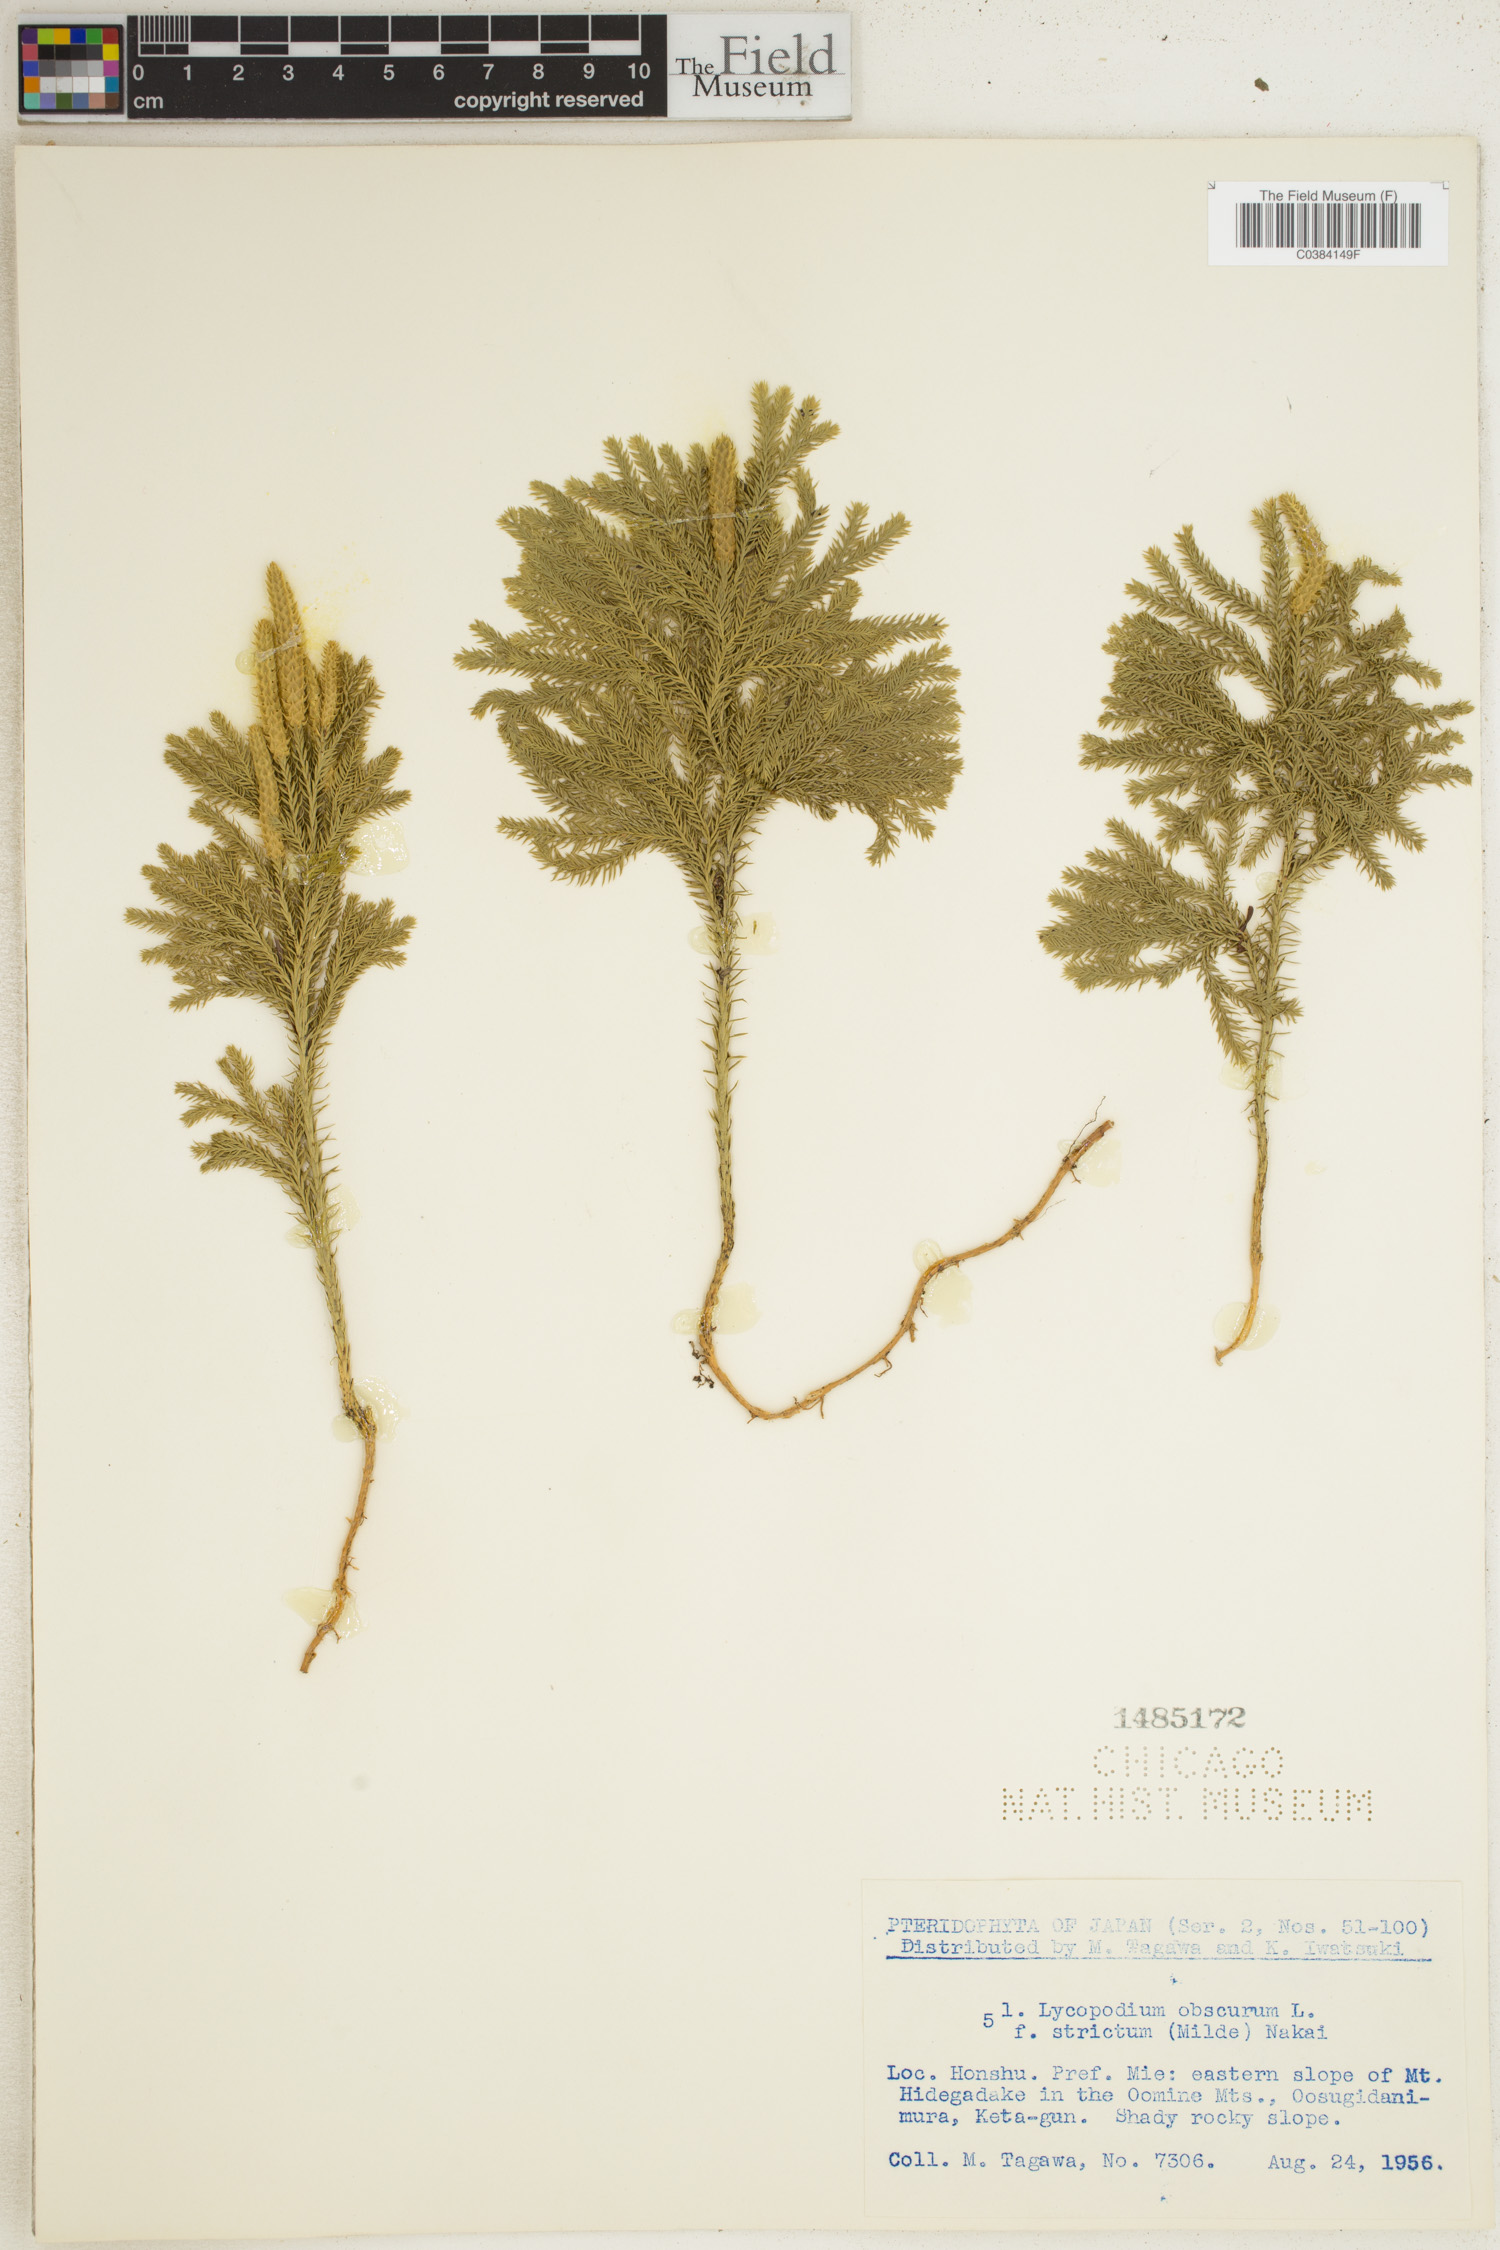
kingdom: Plantae
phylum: Tracheophyta
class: Lycopodiopsida
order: Lycopodiales
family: Lycopodiaceae
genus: Dendrolycopodium
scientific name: Dendrolycopodium obscurum
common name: Common ground-pine
